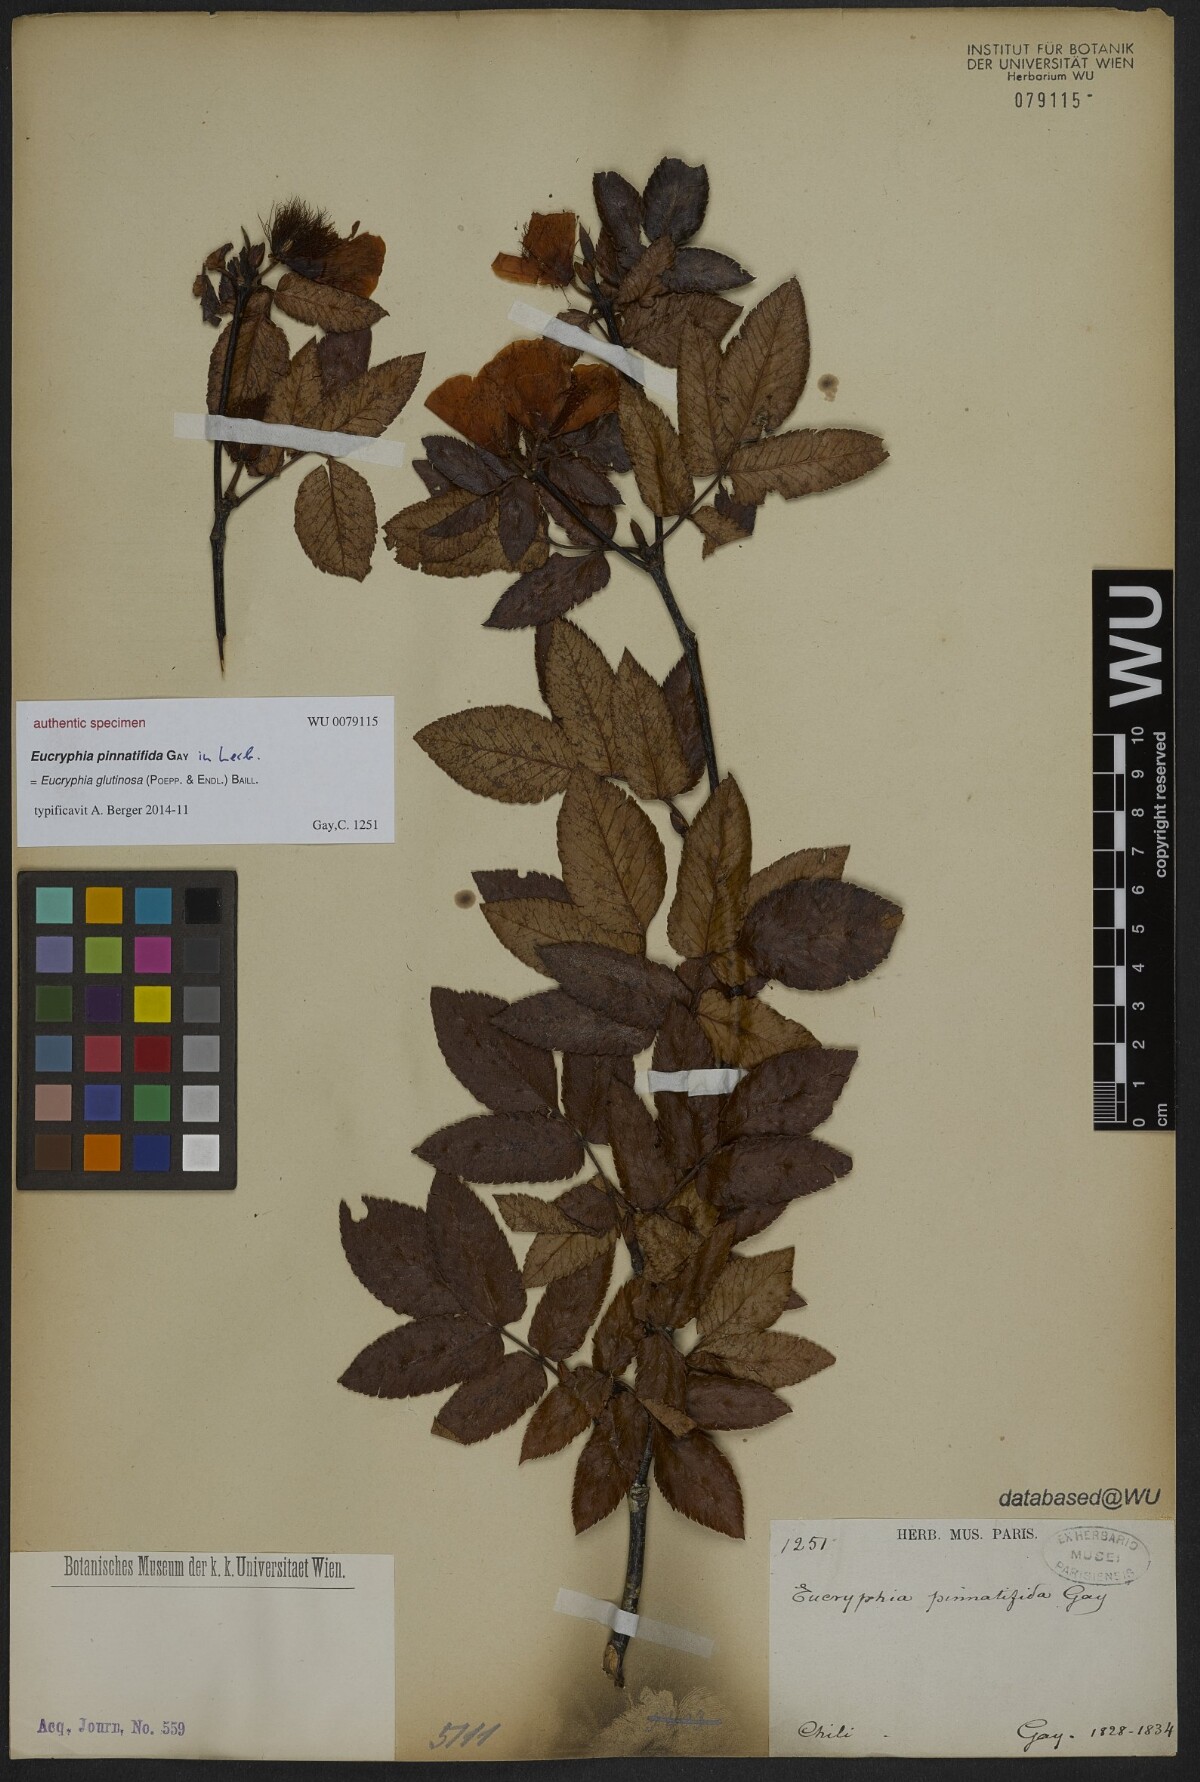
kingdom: Plantae
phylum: Tracheophyta
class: Magnoliopsida
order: Oxalidales
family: Cunoniaceae
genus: Eucryphia
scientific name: Eucryphia pinnatifida
